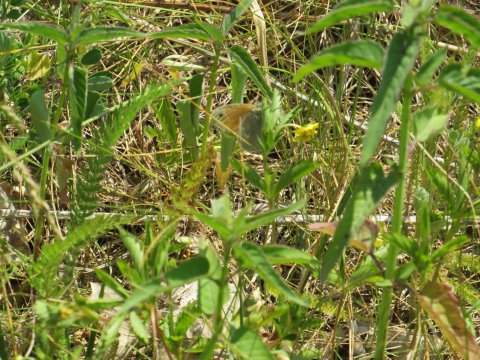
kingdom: Animalia
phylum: Arthropoda
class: Insecta
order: Lepidoptera
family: Nymphalidae
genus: Coenonympha
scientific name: Coenonympha tullia
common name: Large Heath
